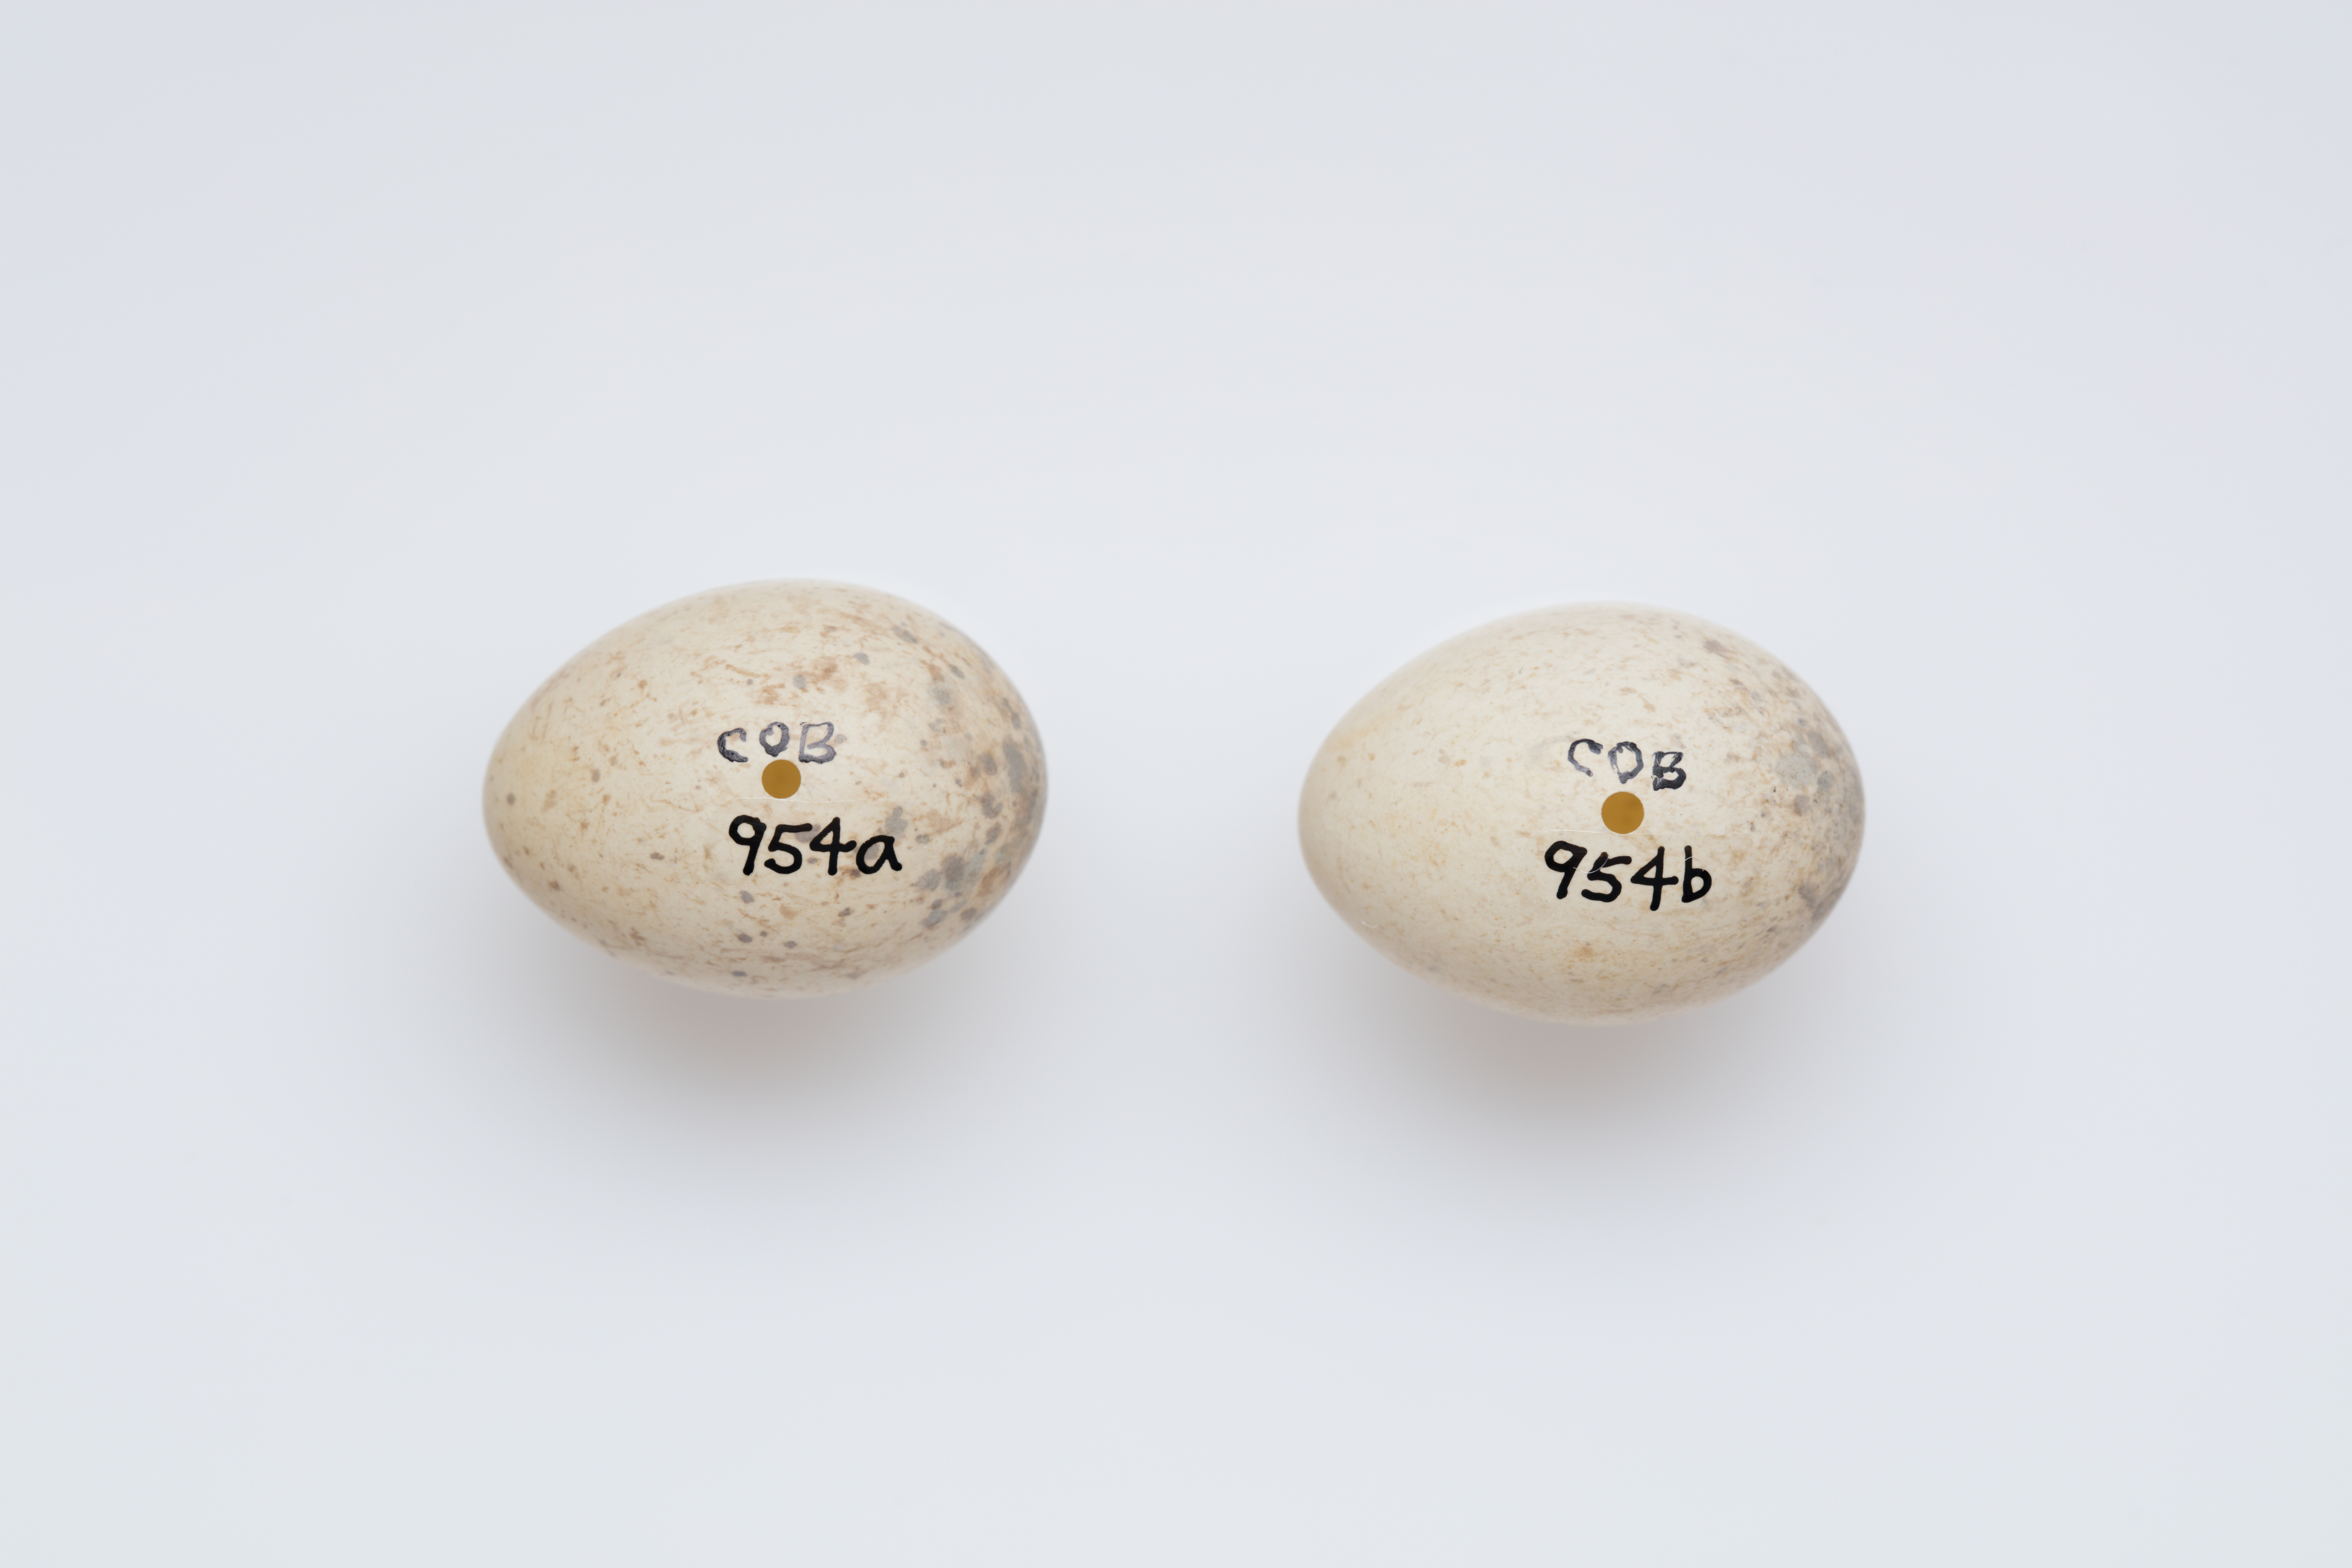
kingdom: Animalia
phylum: Chordata
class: Aves
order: Passeriformes
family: Petroicidae
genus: Petroica
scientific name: Petroica australis
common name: New zealand robin
